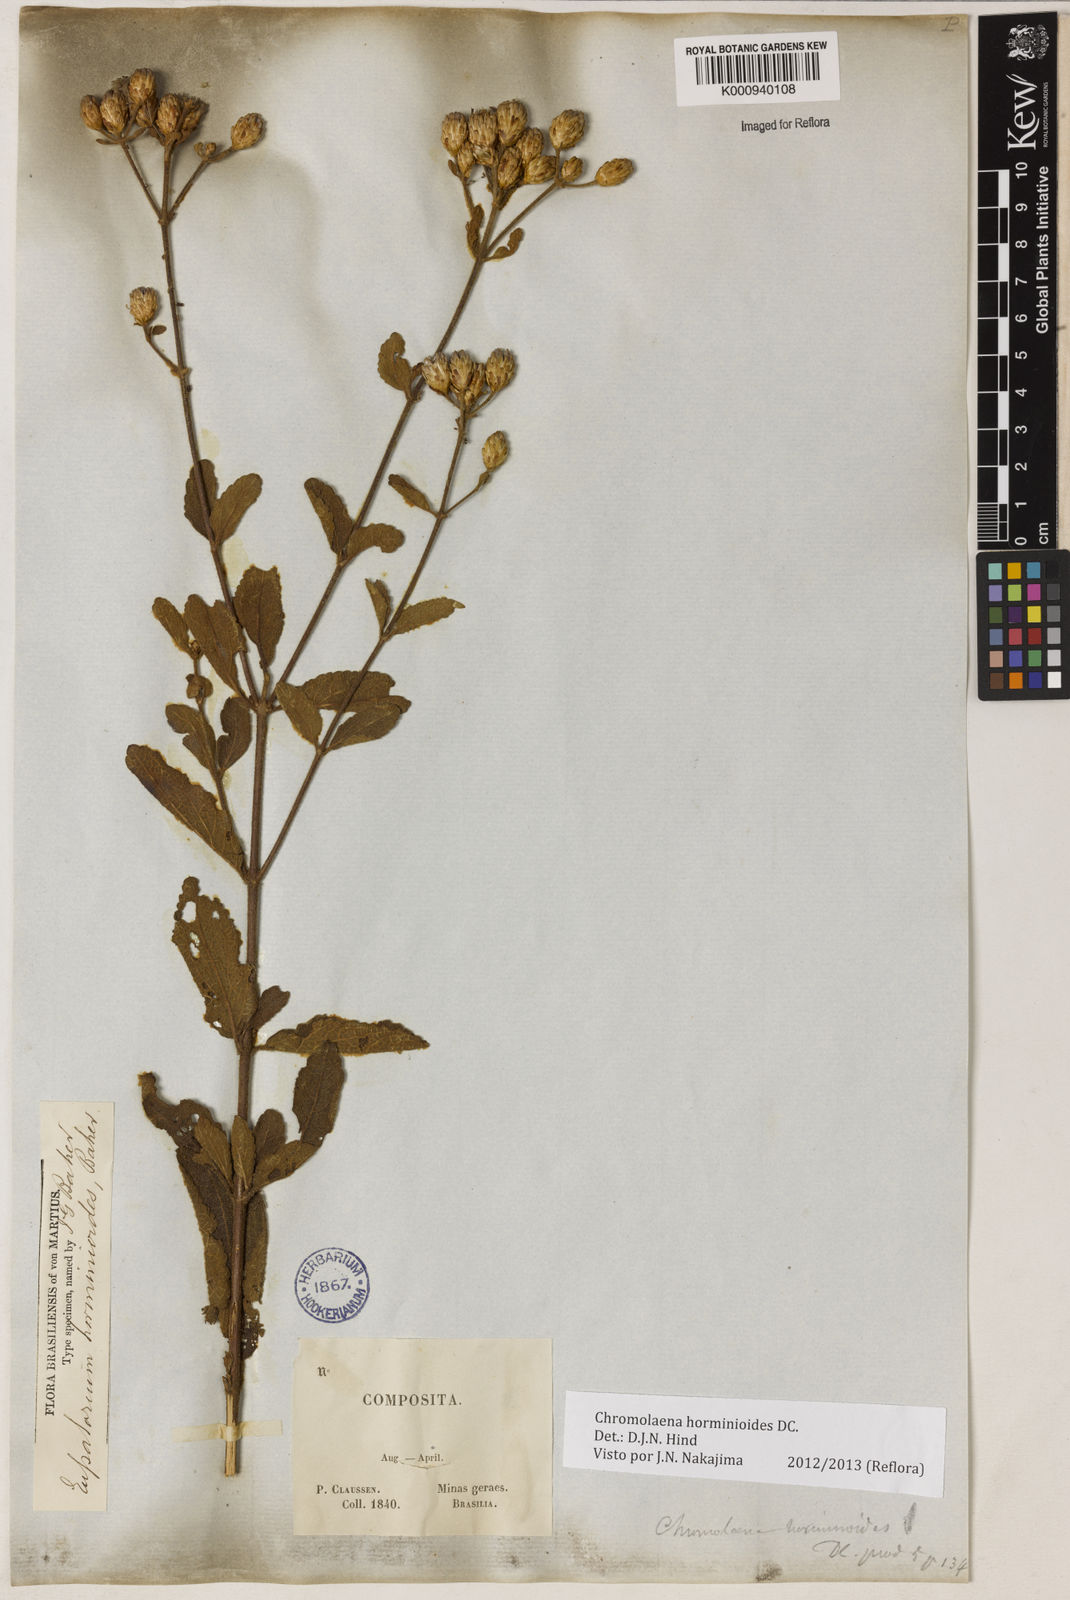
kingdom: Plantae
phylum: Tracheophyta
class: Magnoliopsida
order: Asterales
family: Asteraceae
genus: Chromolaena
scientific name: Chromolaena horminoides
